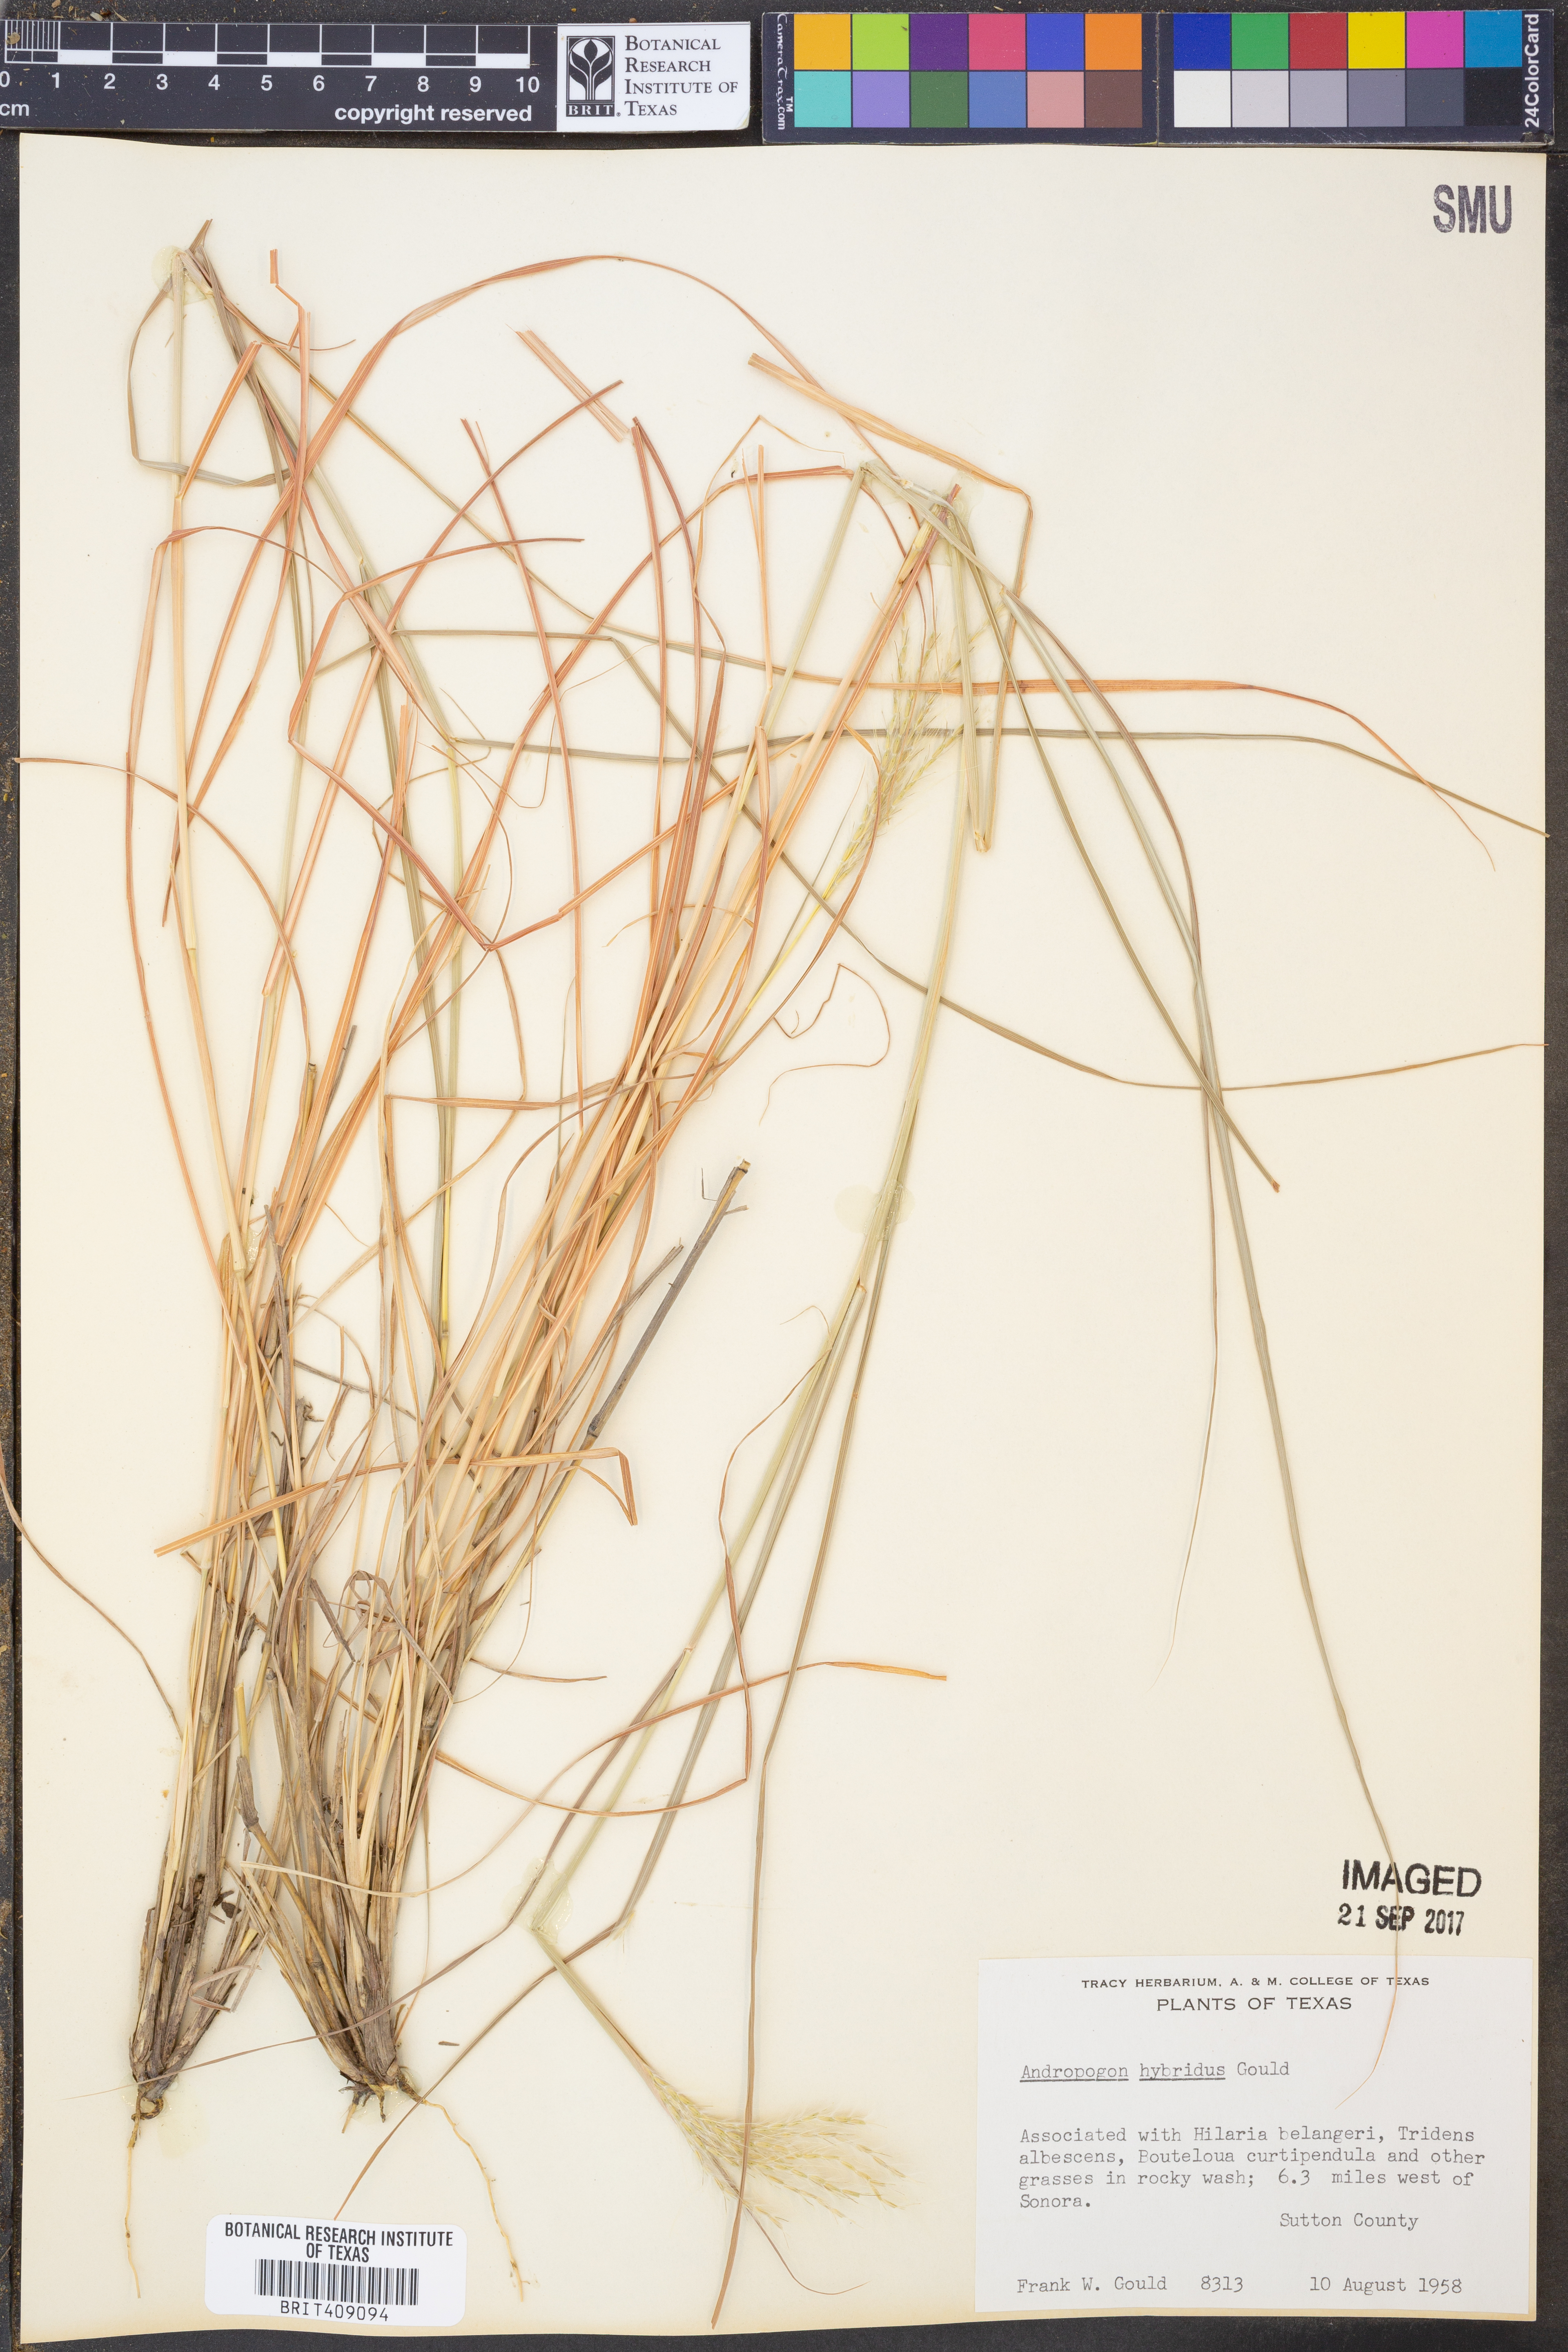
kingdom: Plantae
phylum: Tracheophyta
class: Liliopsida
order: Poales
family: Poaceae
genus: Bothriochloa
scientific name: Bothriochloa hybrida
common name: Hybrid bluestem
